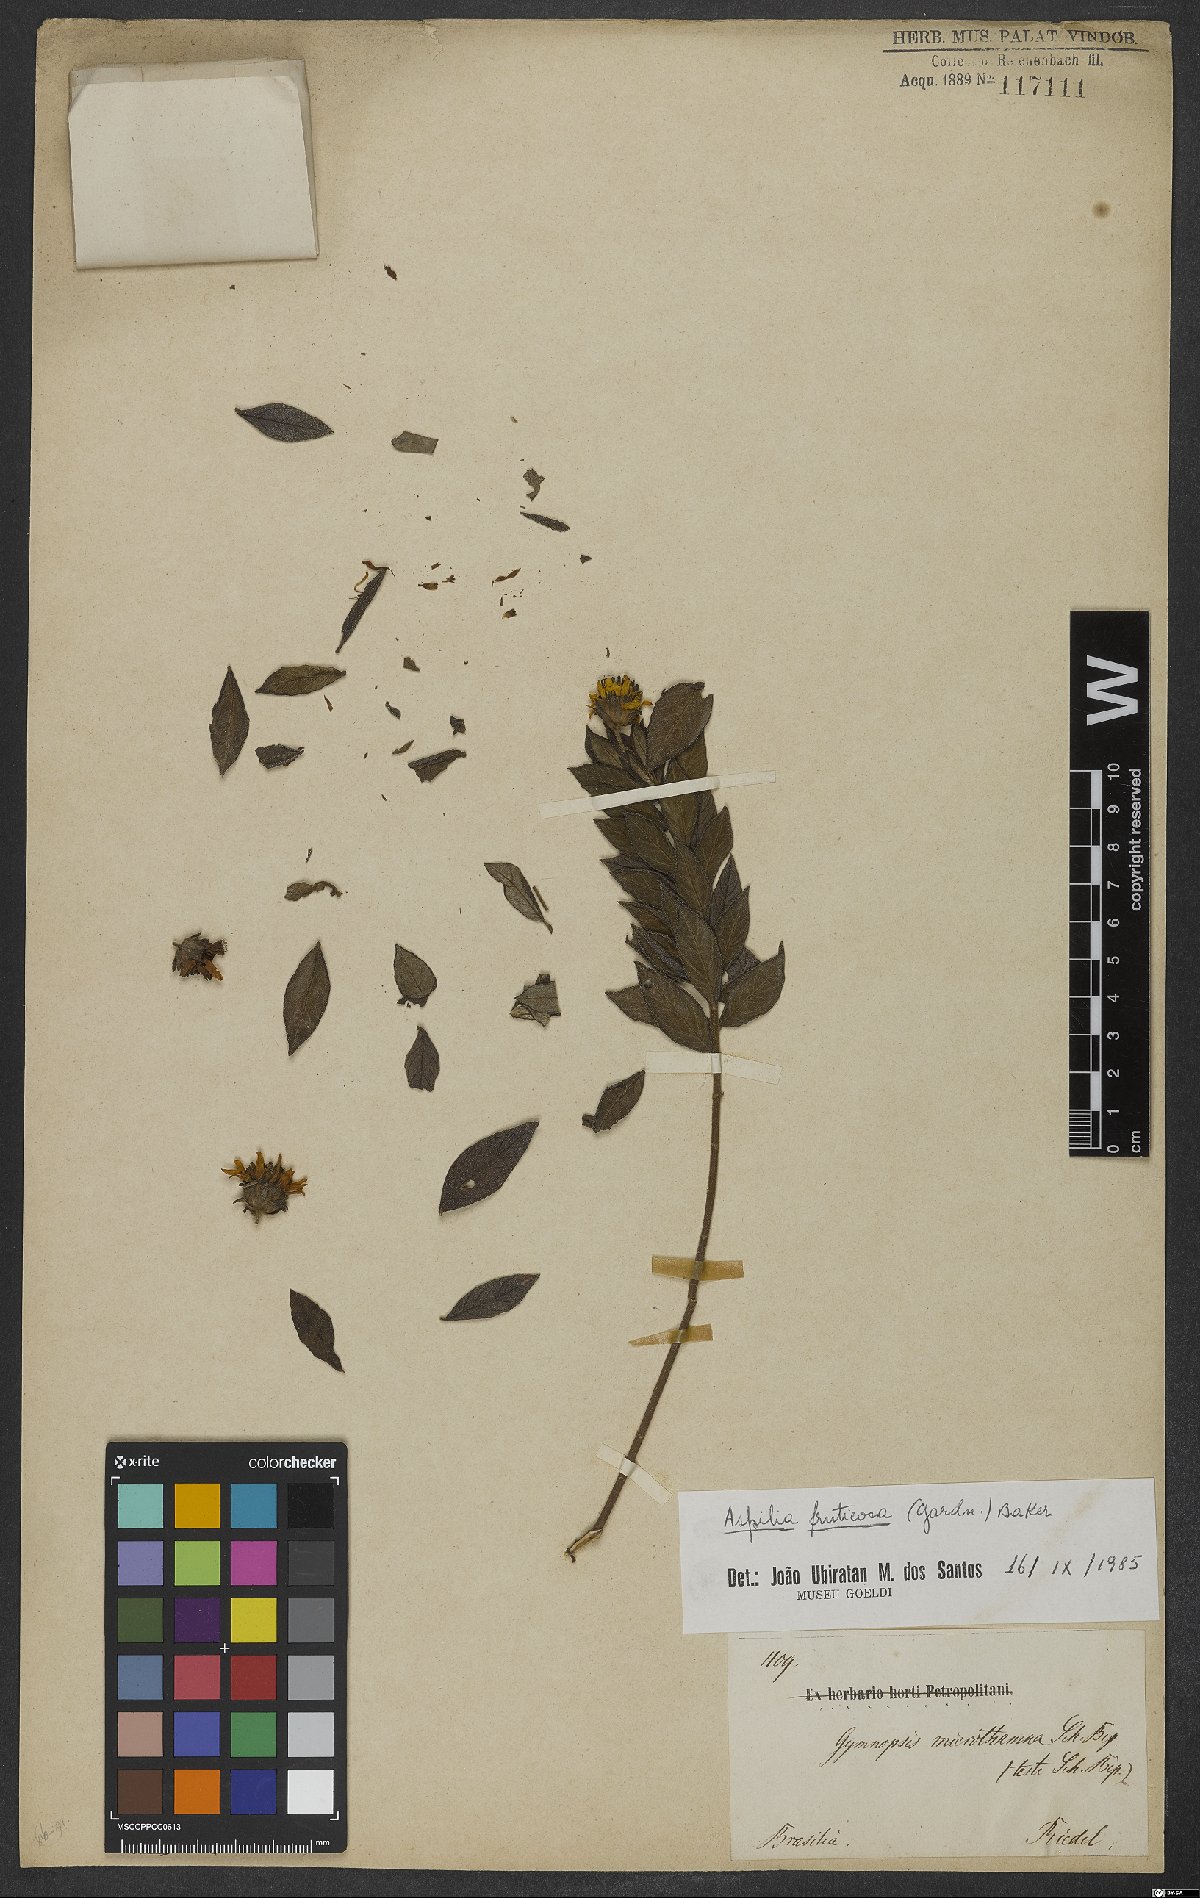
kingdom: Plantae
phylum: Tracheophyta
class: Magnoliopsida
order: Asterales
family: Asteraceae
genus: Wedelia
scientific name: Wedelia frustrata
